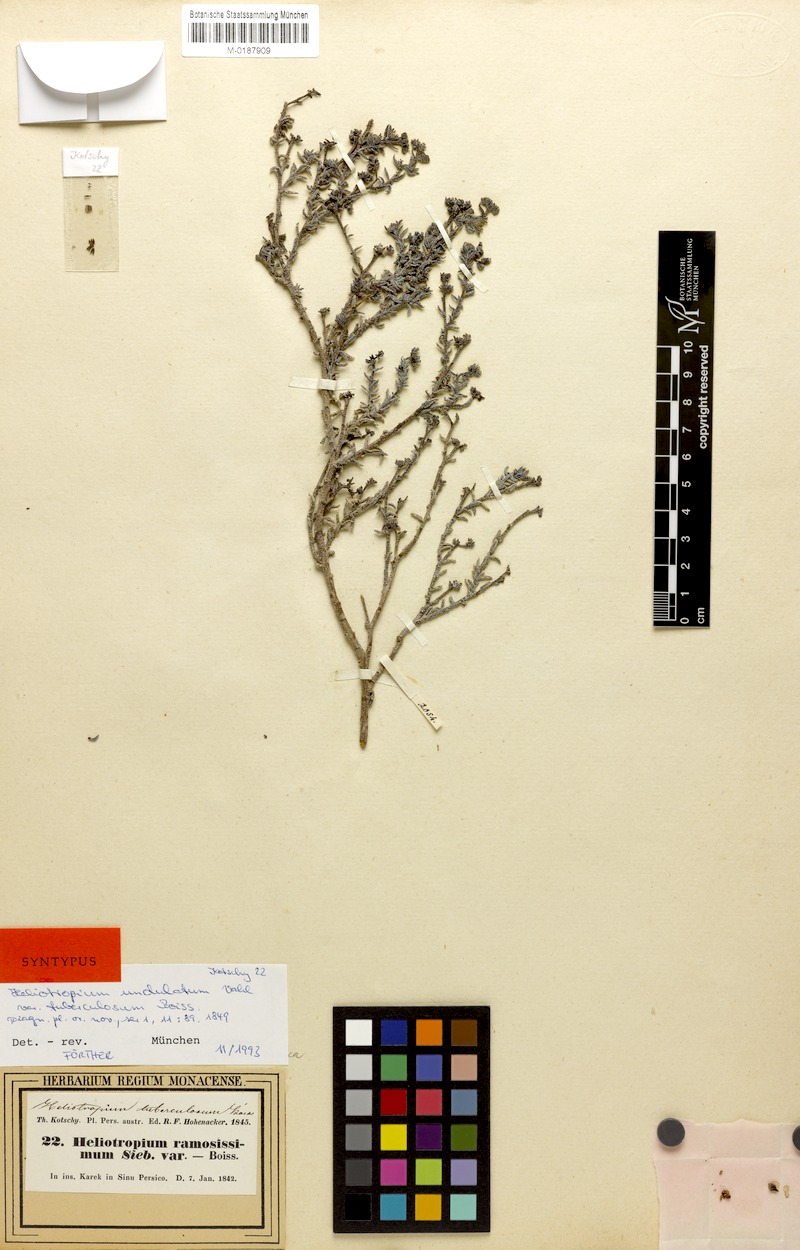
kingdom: Plantae
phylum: Tracheophyta
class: Magnoliopsida
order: Boraginales
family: Heliotropiaceae
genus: Heliotropium
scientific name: Heliotropium bacciferum
